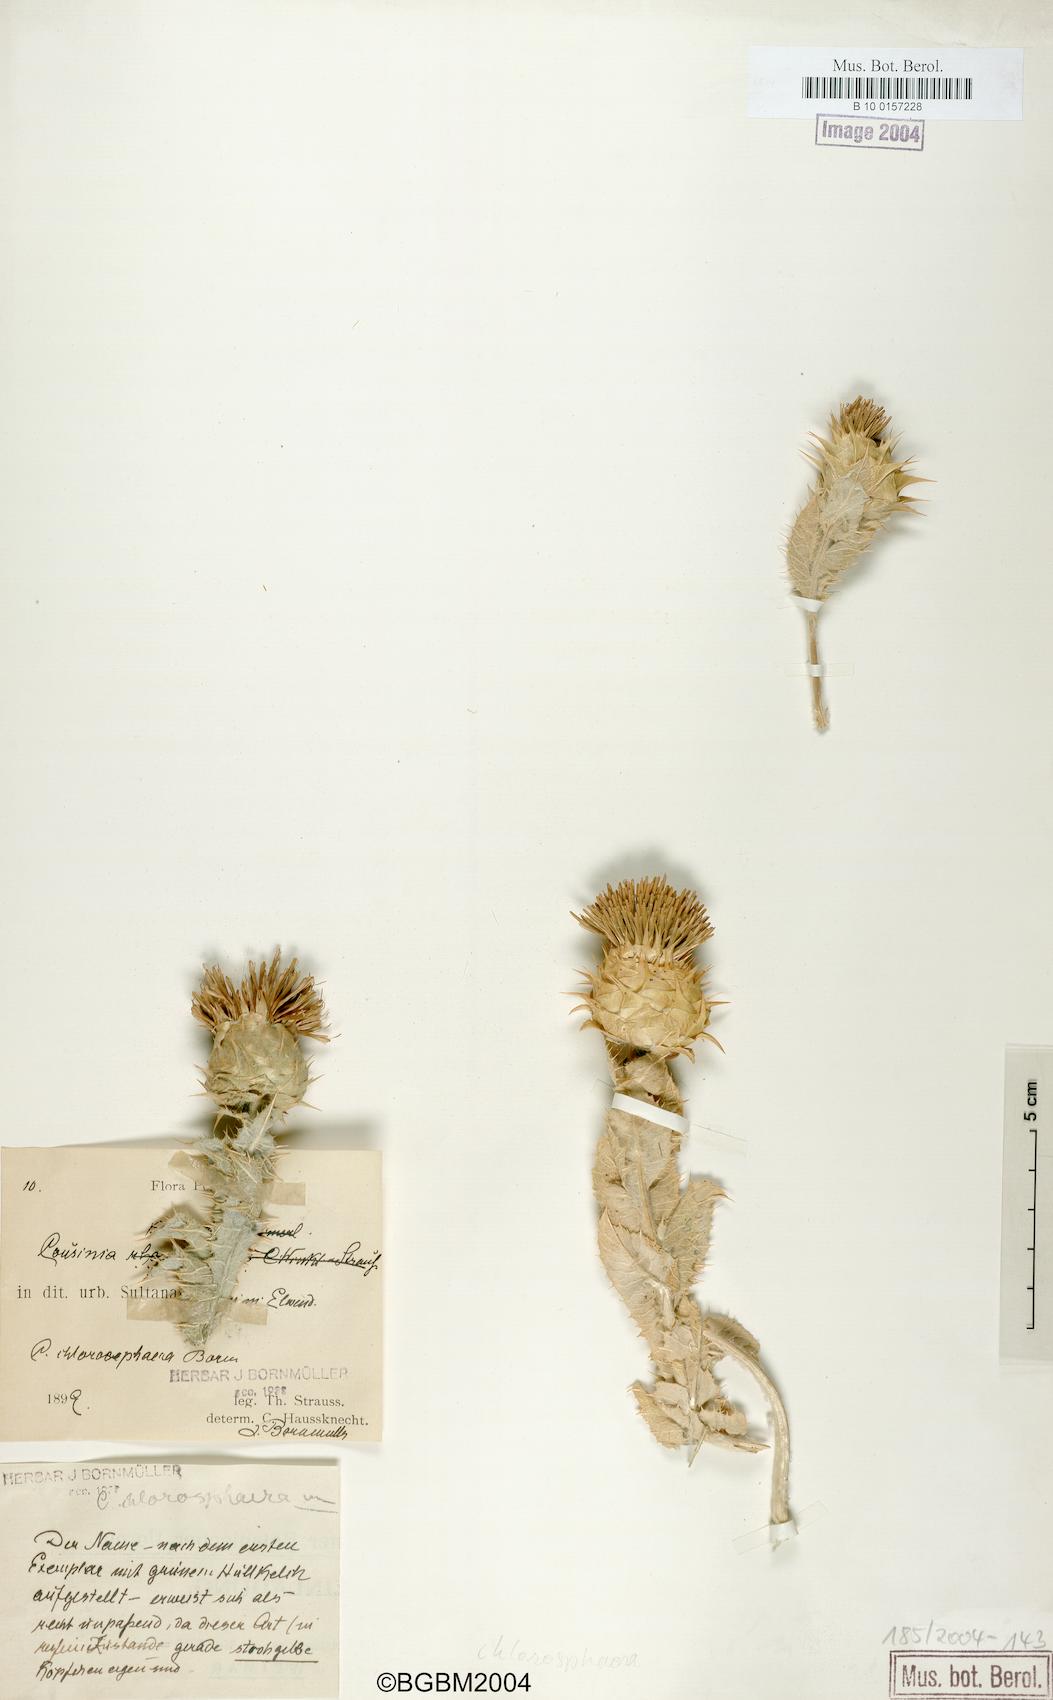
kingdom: Plantae
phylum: Tracheophyta
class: Magnoliopsida
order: Asterales
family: Asteraceae
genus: Cousinia
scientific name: Cousinia chlorosphaera
